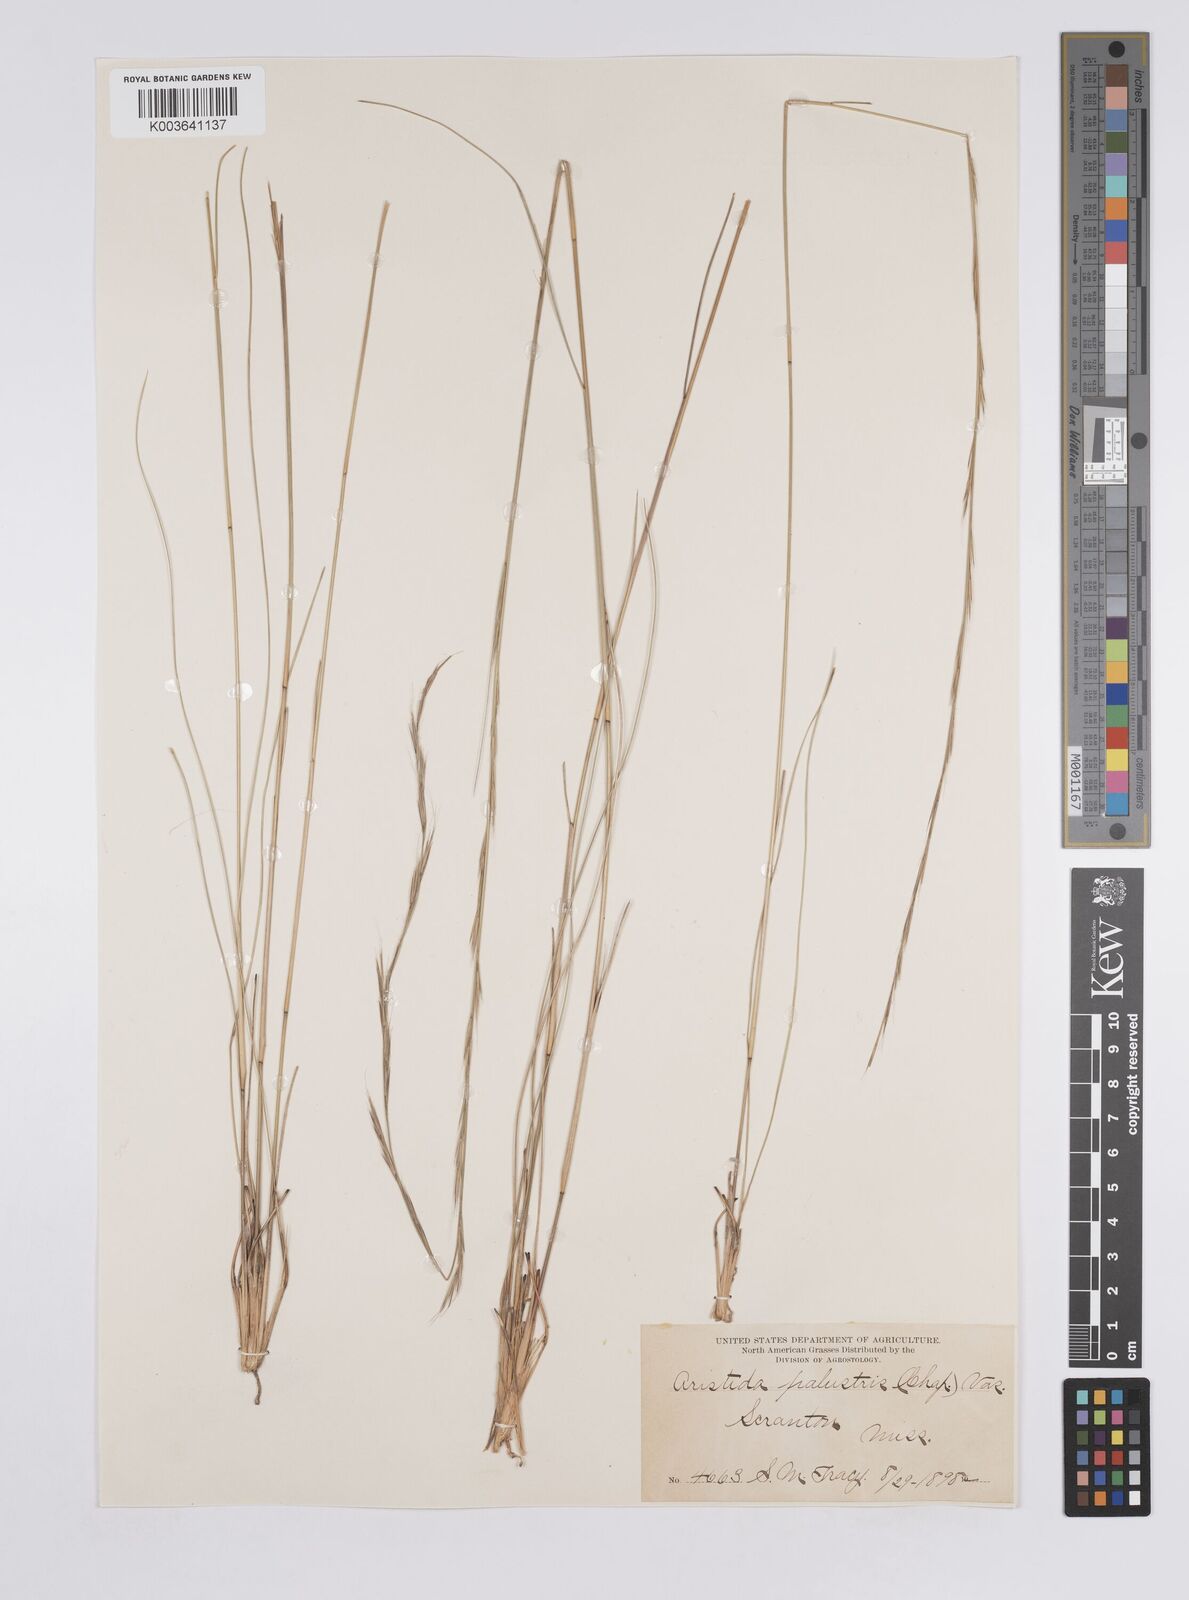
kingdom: Plantae
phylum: Tracheophyta
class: Liliopsida
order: Poales
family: Poaceae
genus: Aristida
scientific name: Aristida palustris
